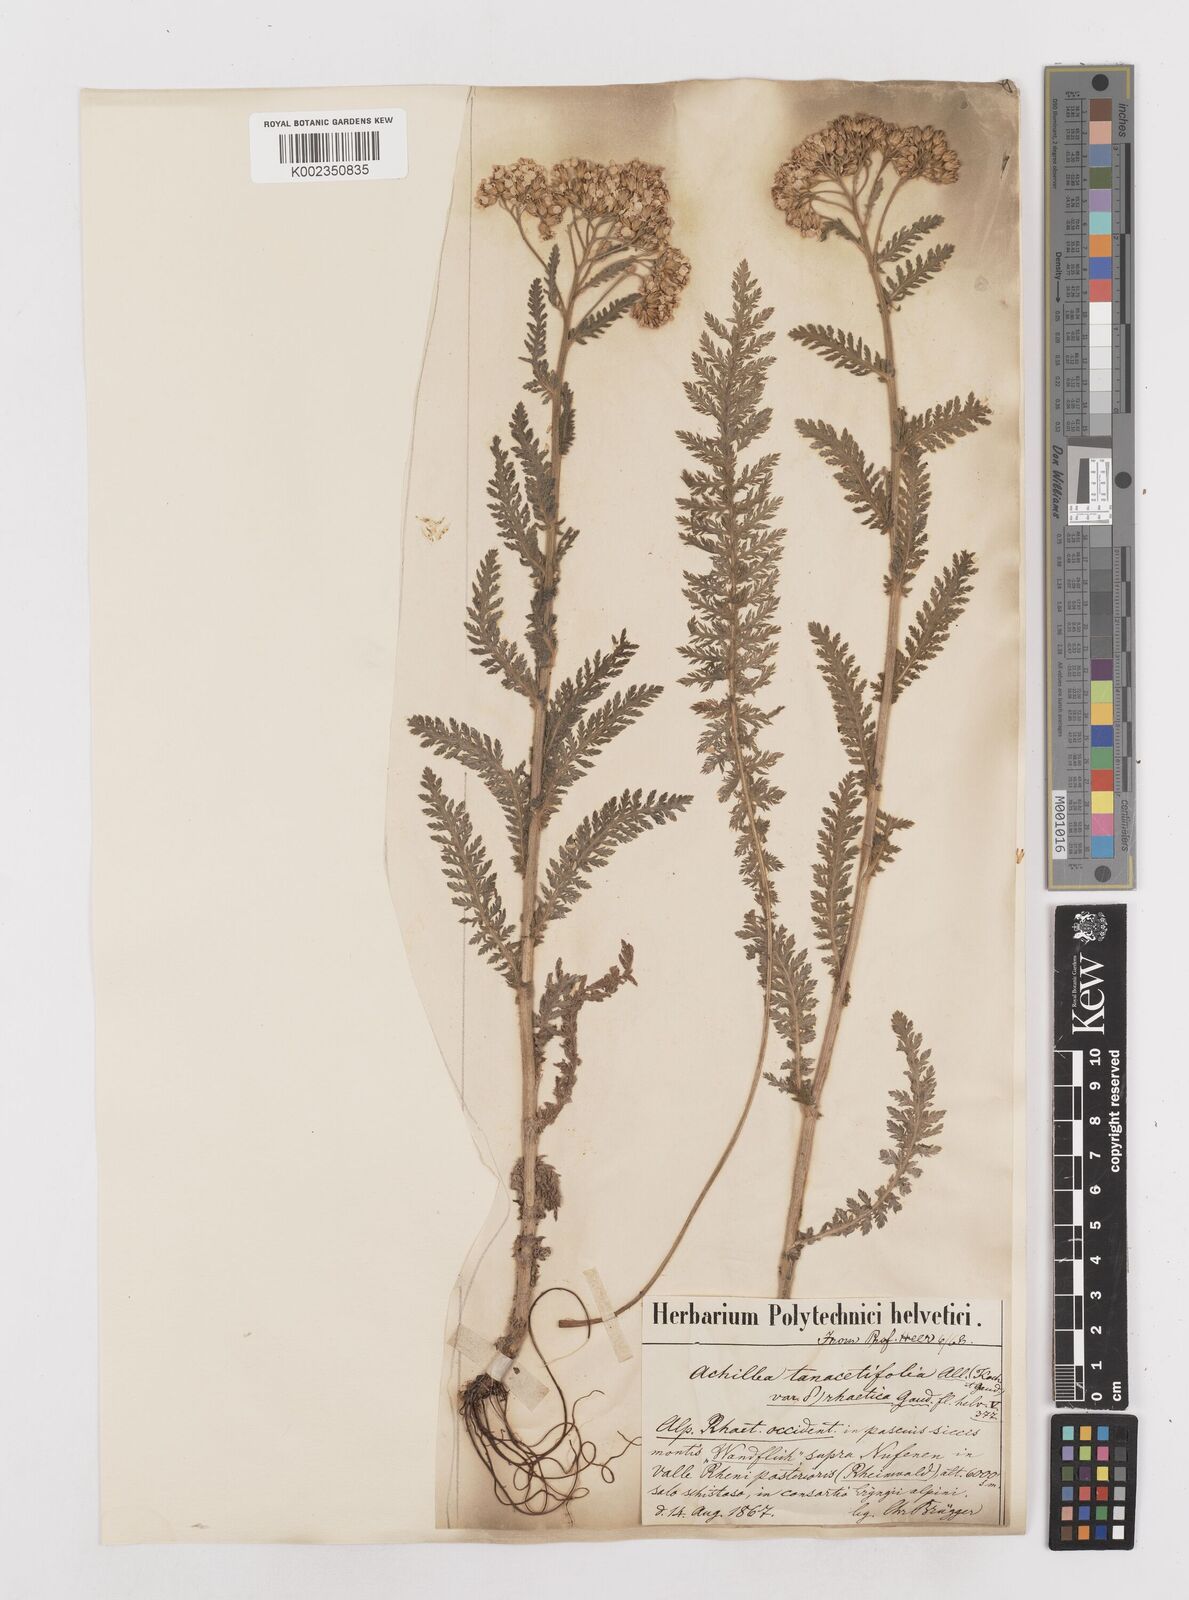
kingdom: Plantae
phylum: Tracheophyta
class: Magnoliopsida
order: Asterales
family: Asteraceae
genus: Achillea
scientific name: Achillea distans
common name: Tall yarrow
